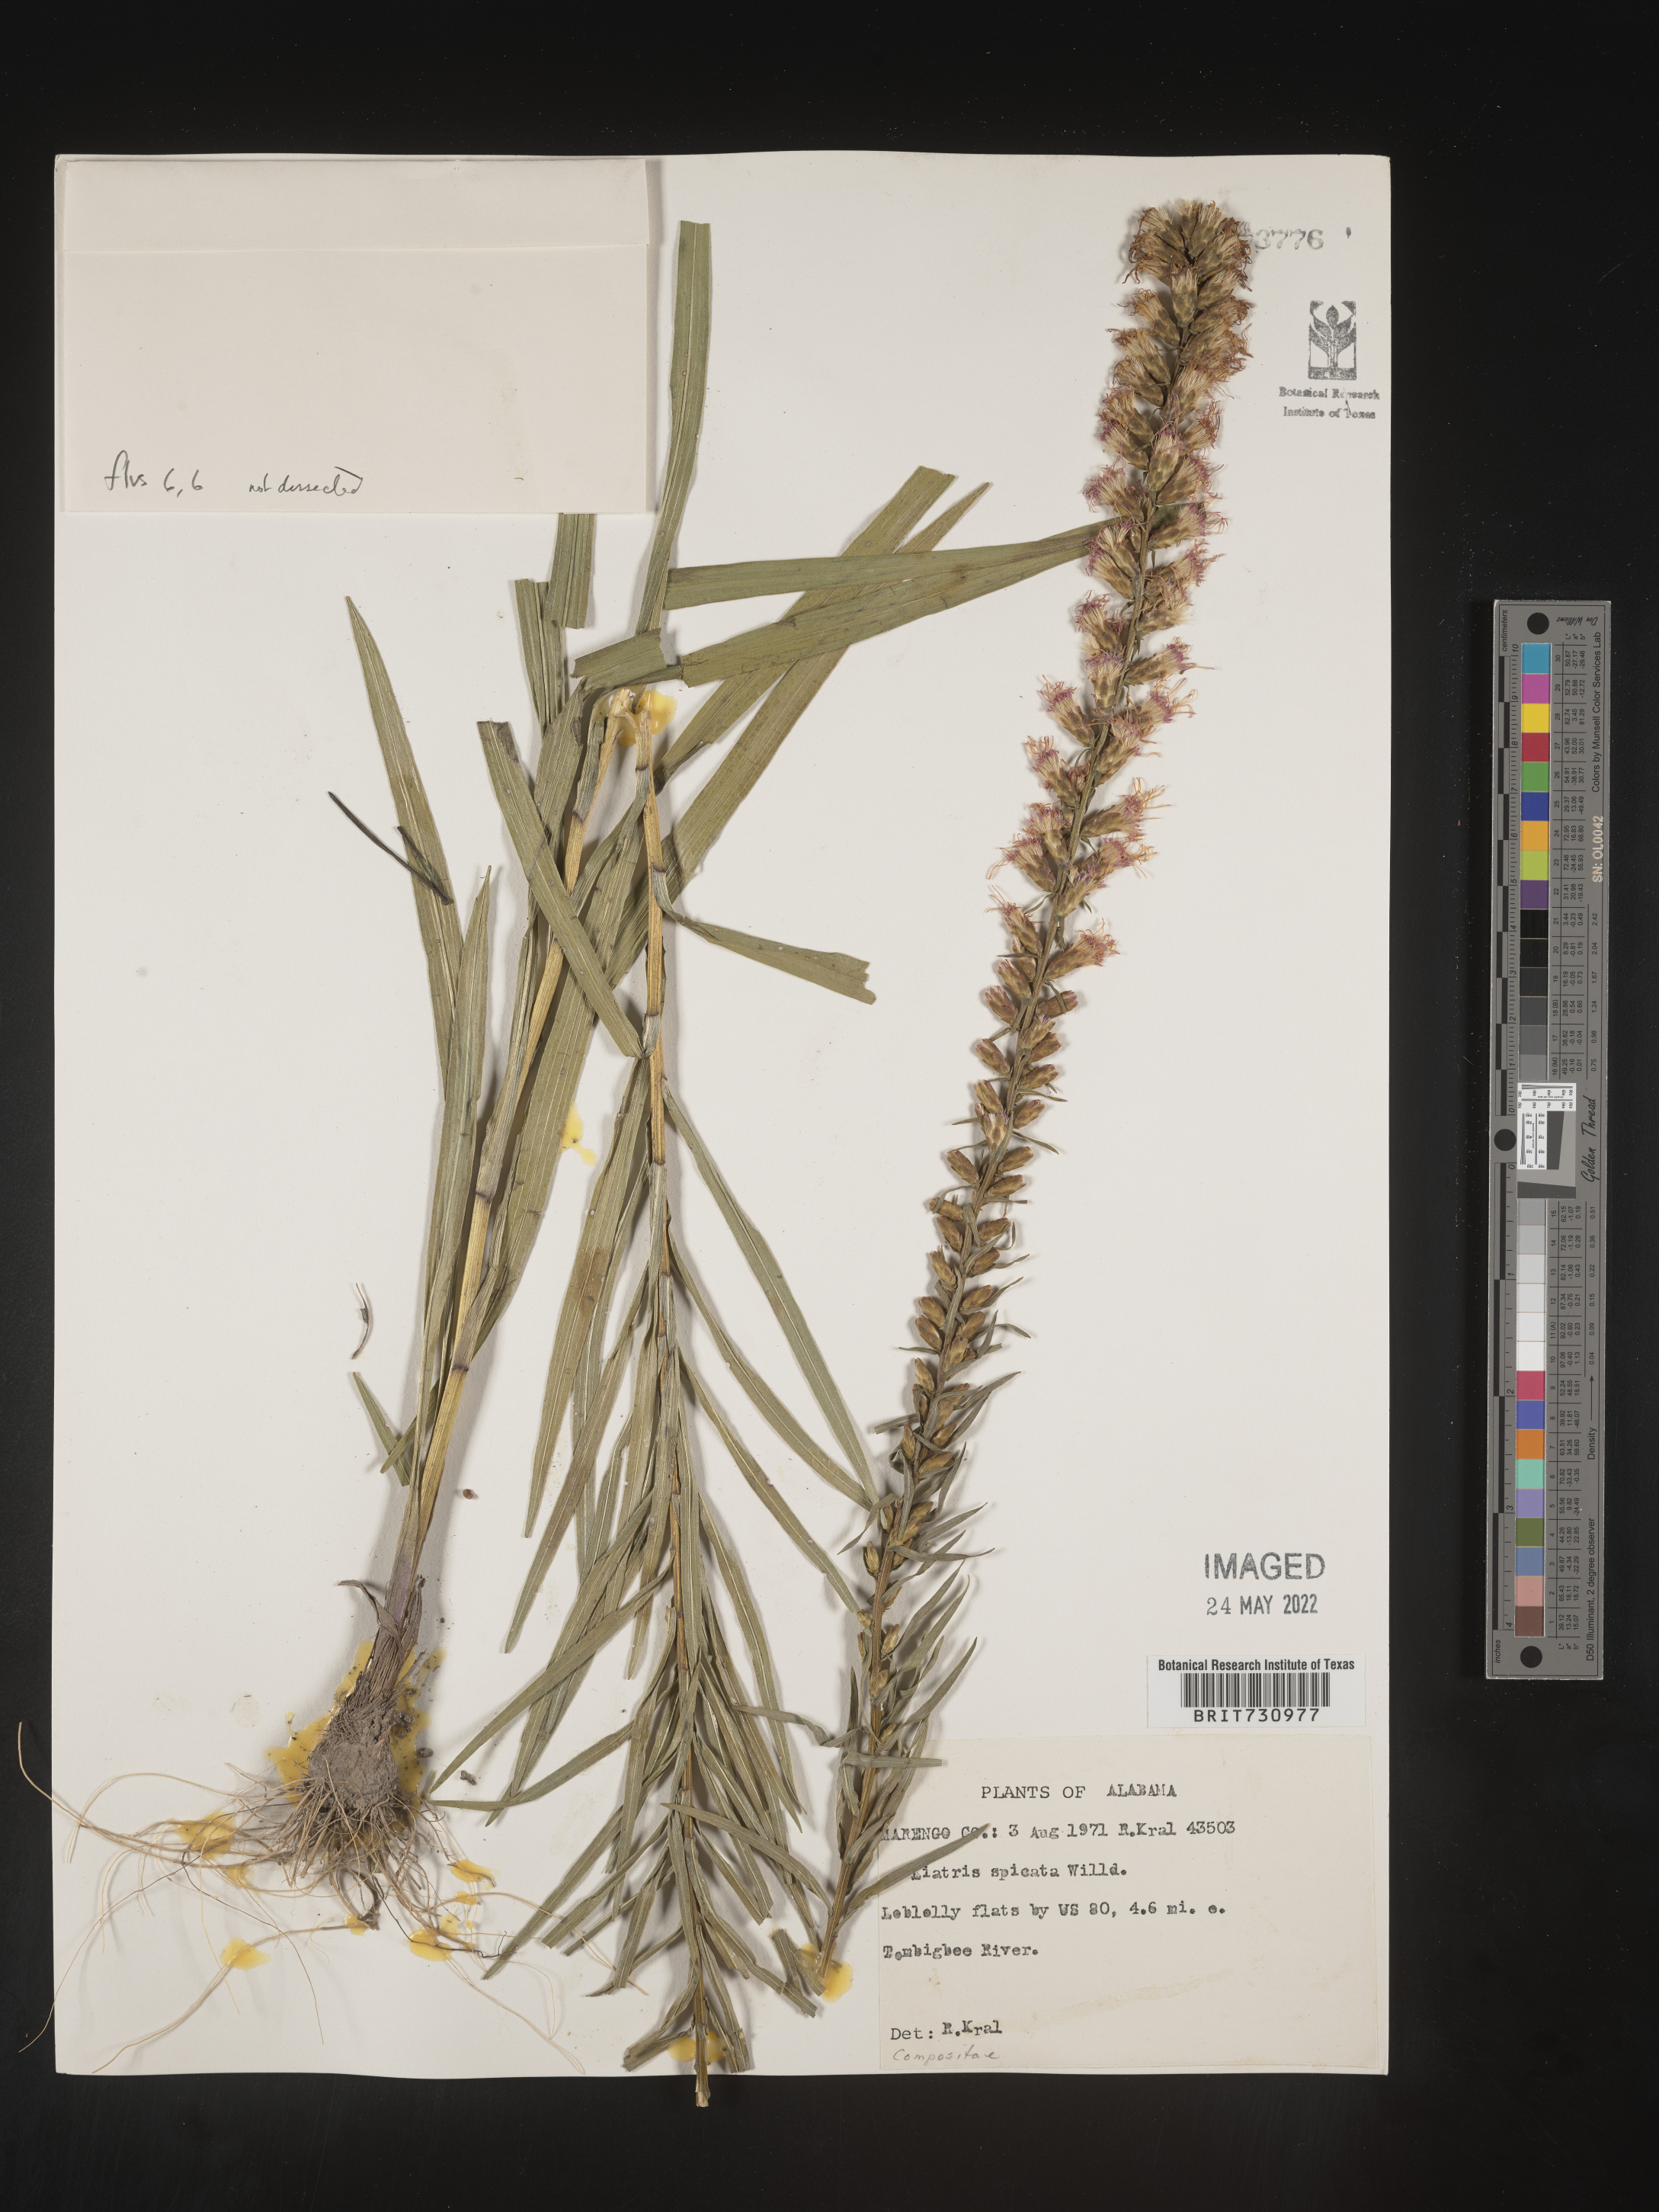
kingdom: Plantae
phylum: Tracheophyta
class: Magnoliopsida
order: Asterales
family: Asteraceae
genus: Liatris
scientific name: Liatris spicata
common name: Florist gayfeather
